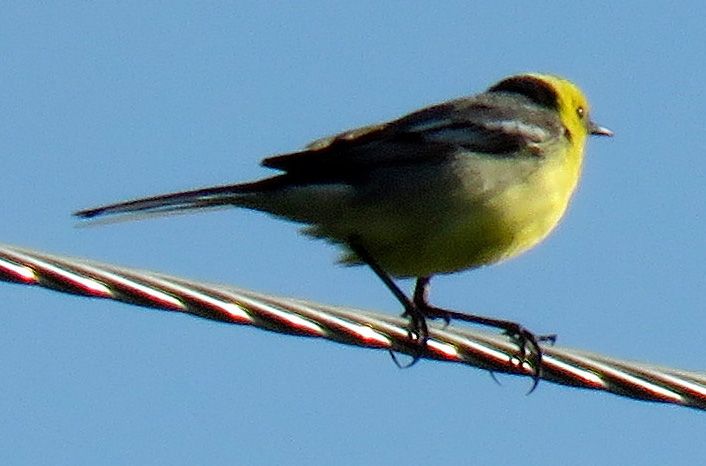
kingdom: Animalia
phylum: Chordata
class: Aves
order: Passeriformes
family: Motacillidae
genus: Motacilla
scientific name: Motacilla citreola
